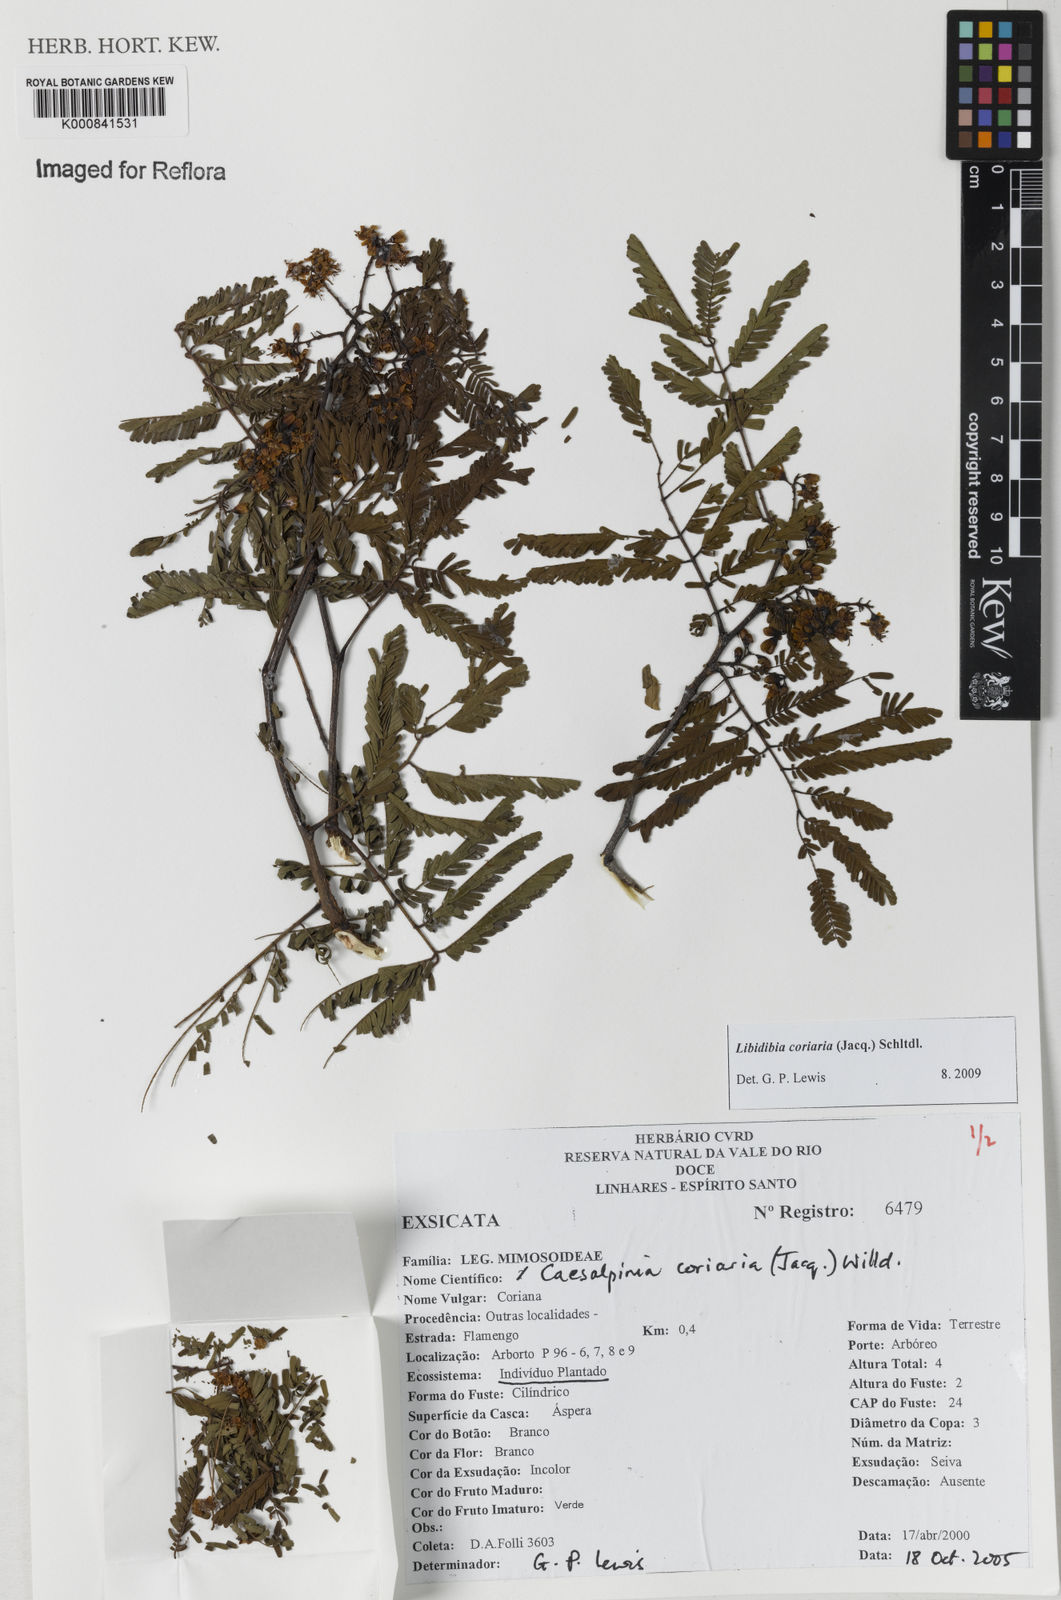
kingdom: Plantae
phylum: Tracheophyta
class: Magnoliopsida
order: Fabales
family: Fabaceae
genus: Libidibia
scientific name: Libidibia coriaria
